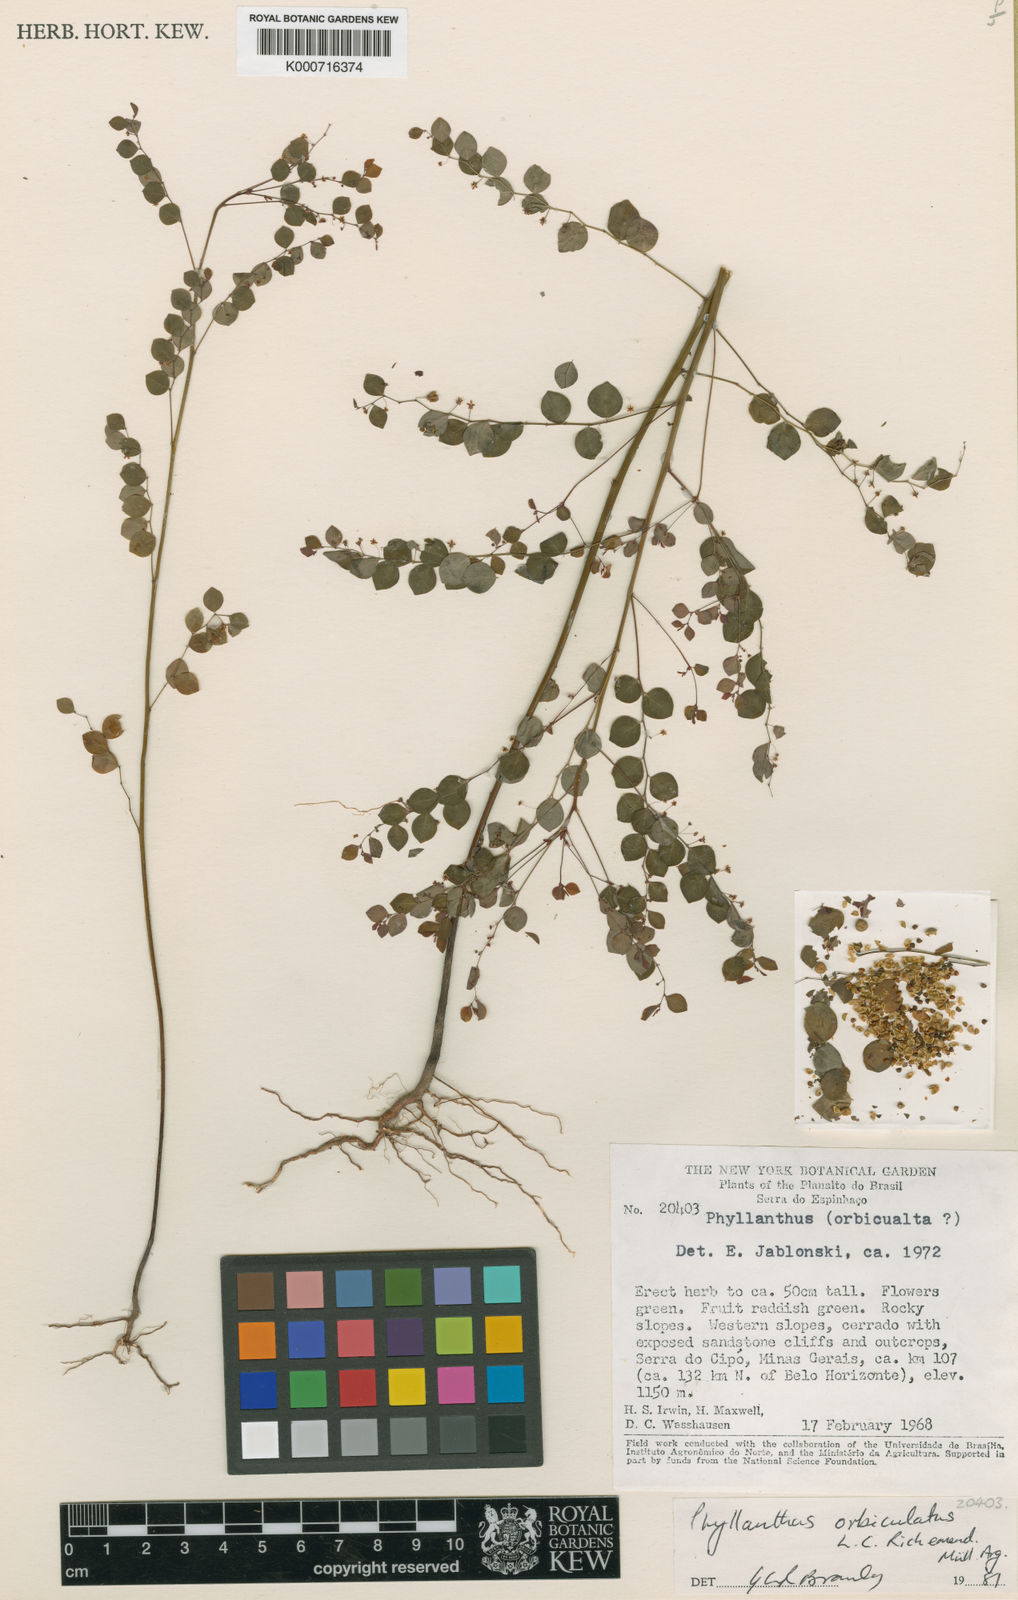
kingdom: Plantae
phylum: Tracheophyta
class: Magnoliopsida
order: Malpighiales
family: Phyllanthaceae
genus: Phyllanthus
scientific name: Phyllanthus orbiculatus
